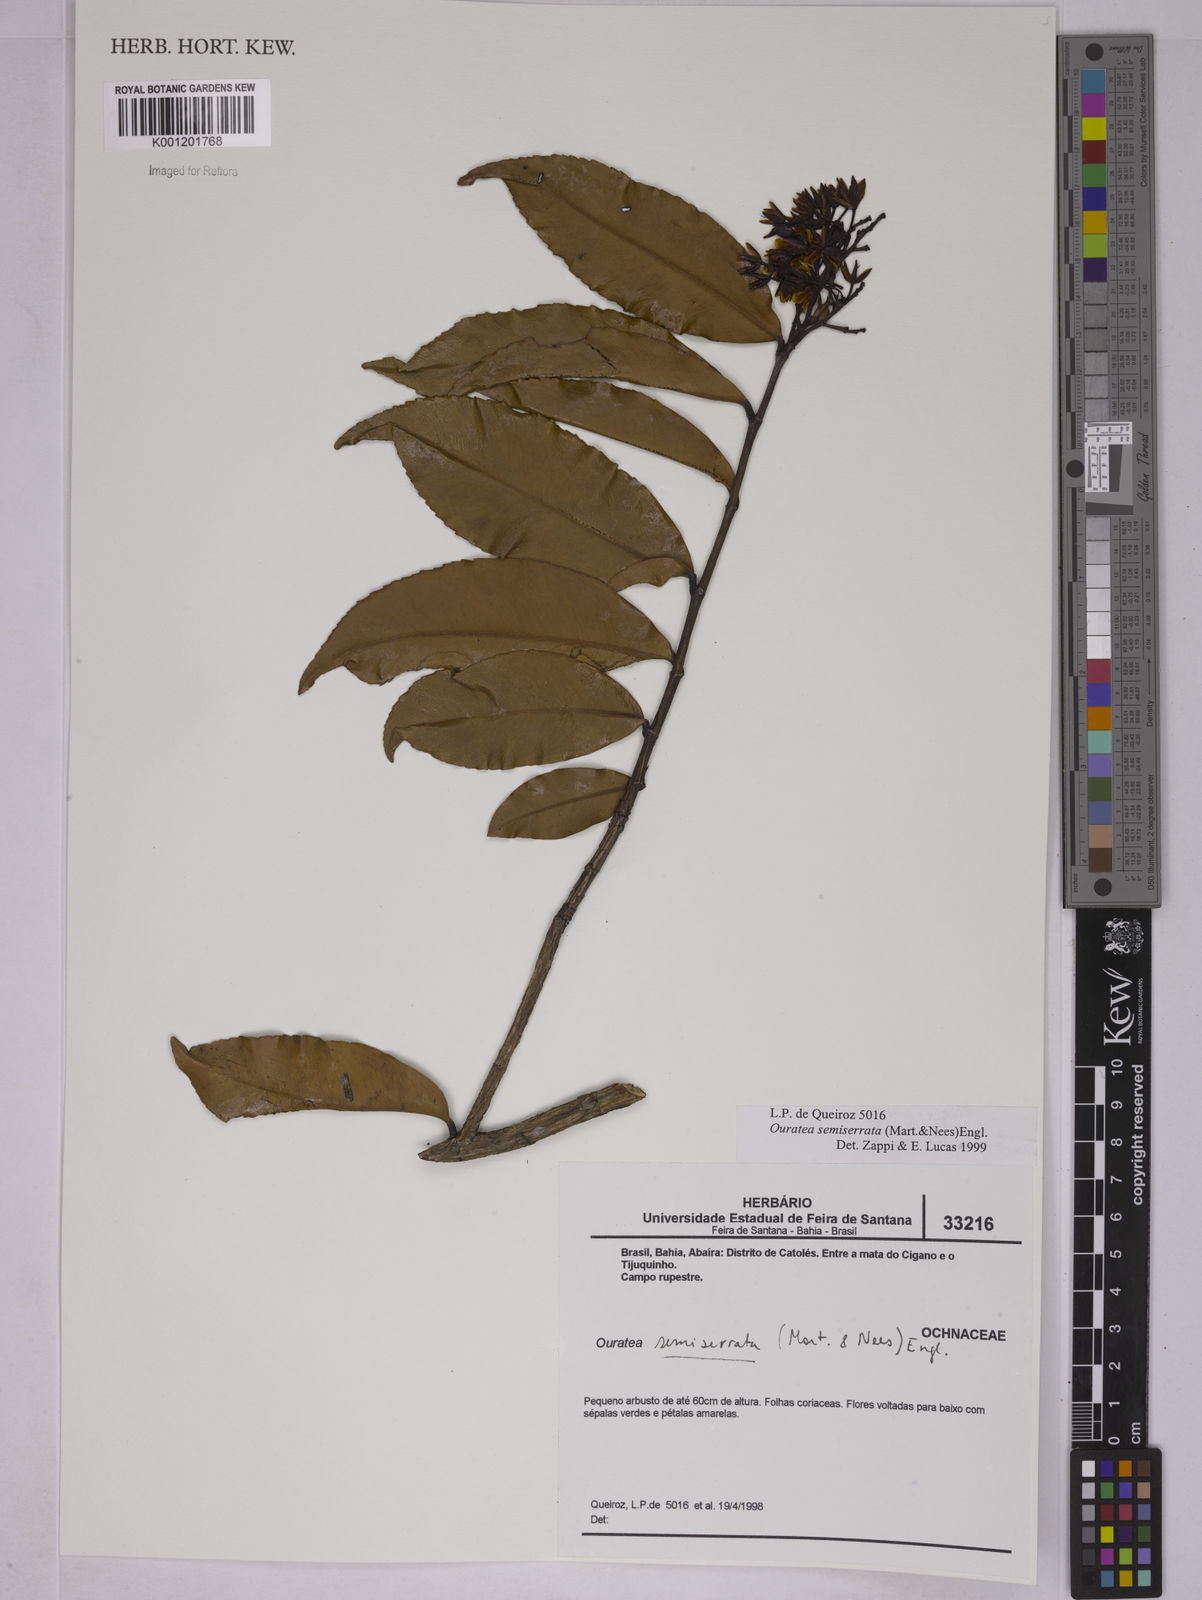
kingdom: Plantae
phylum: Tracheophyta
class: Magnoliopsida
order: Malpighiales
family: Ochnaceae
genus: Ouratea
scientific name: Ouratea semiserrata
